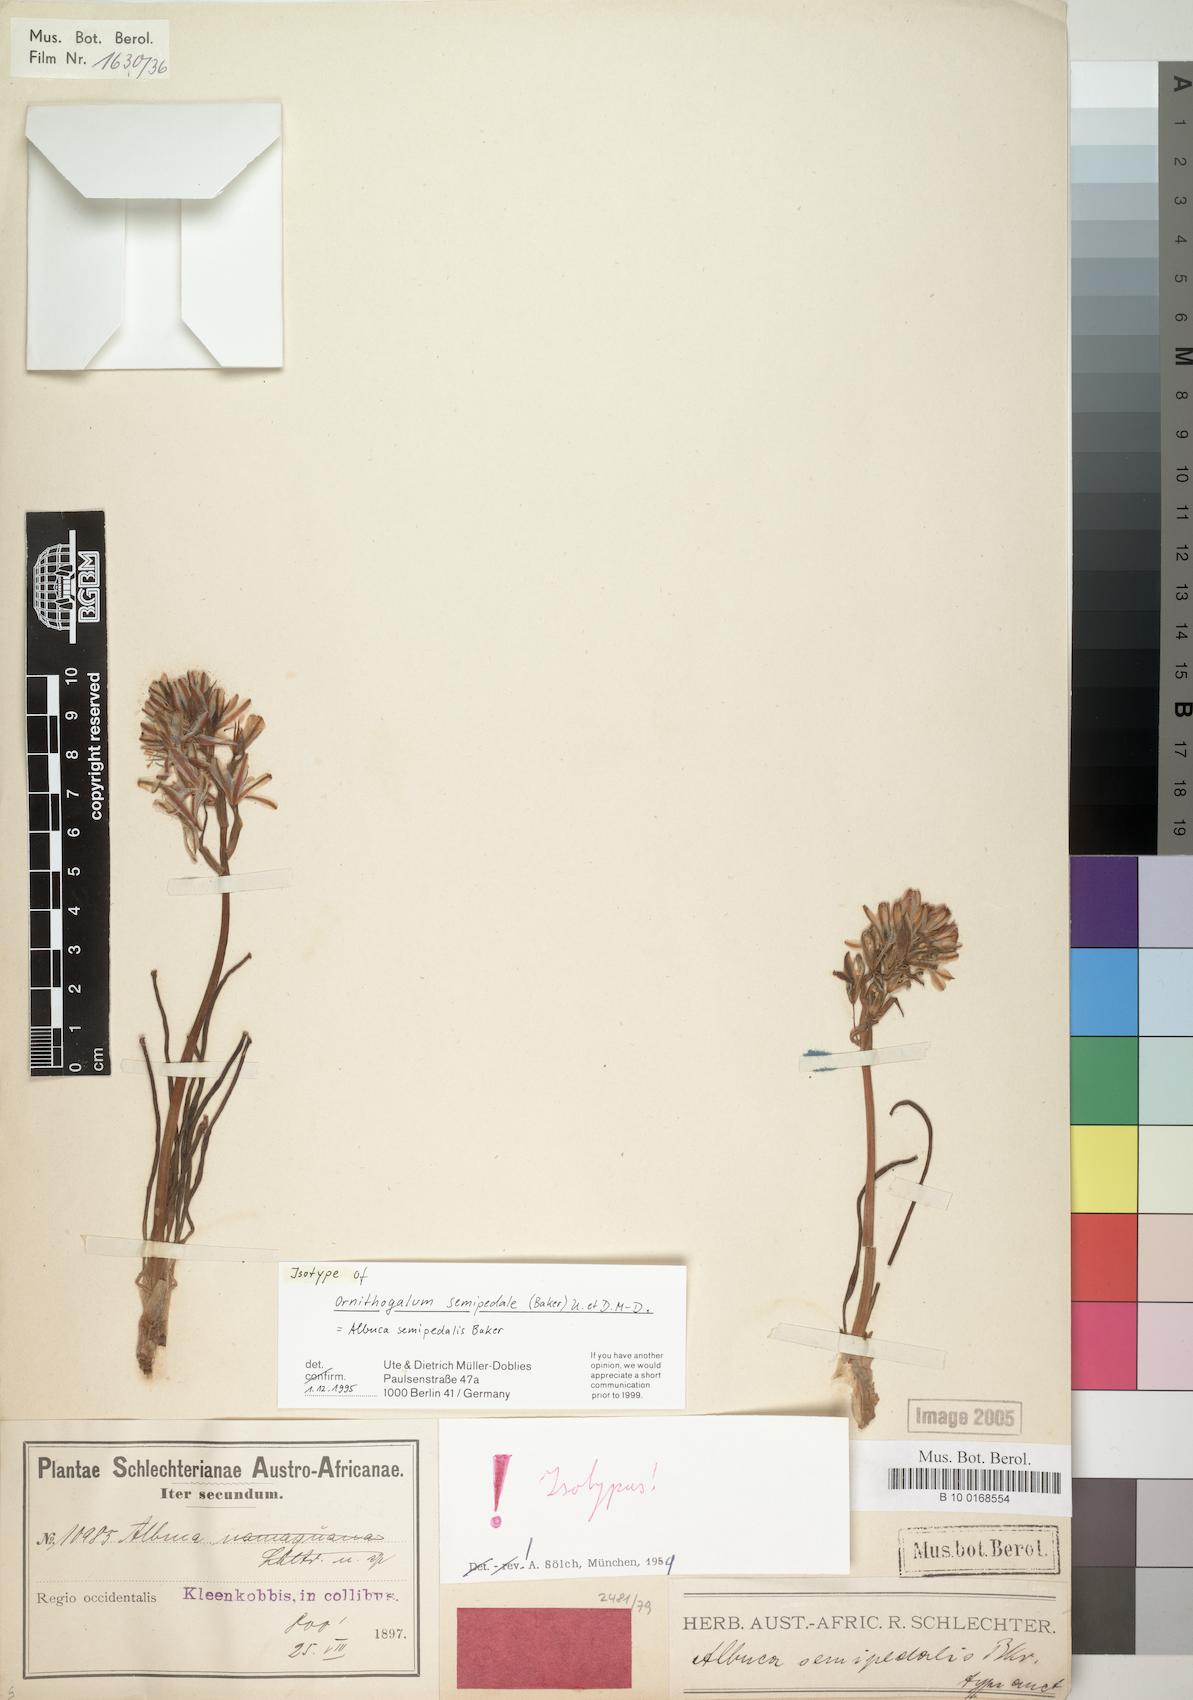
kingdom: Plantae
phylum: Tracheophyta
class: Liliopsida
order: Asparagales
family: Asparagaceae
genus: Albuca
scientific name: Albuca semipedalis
